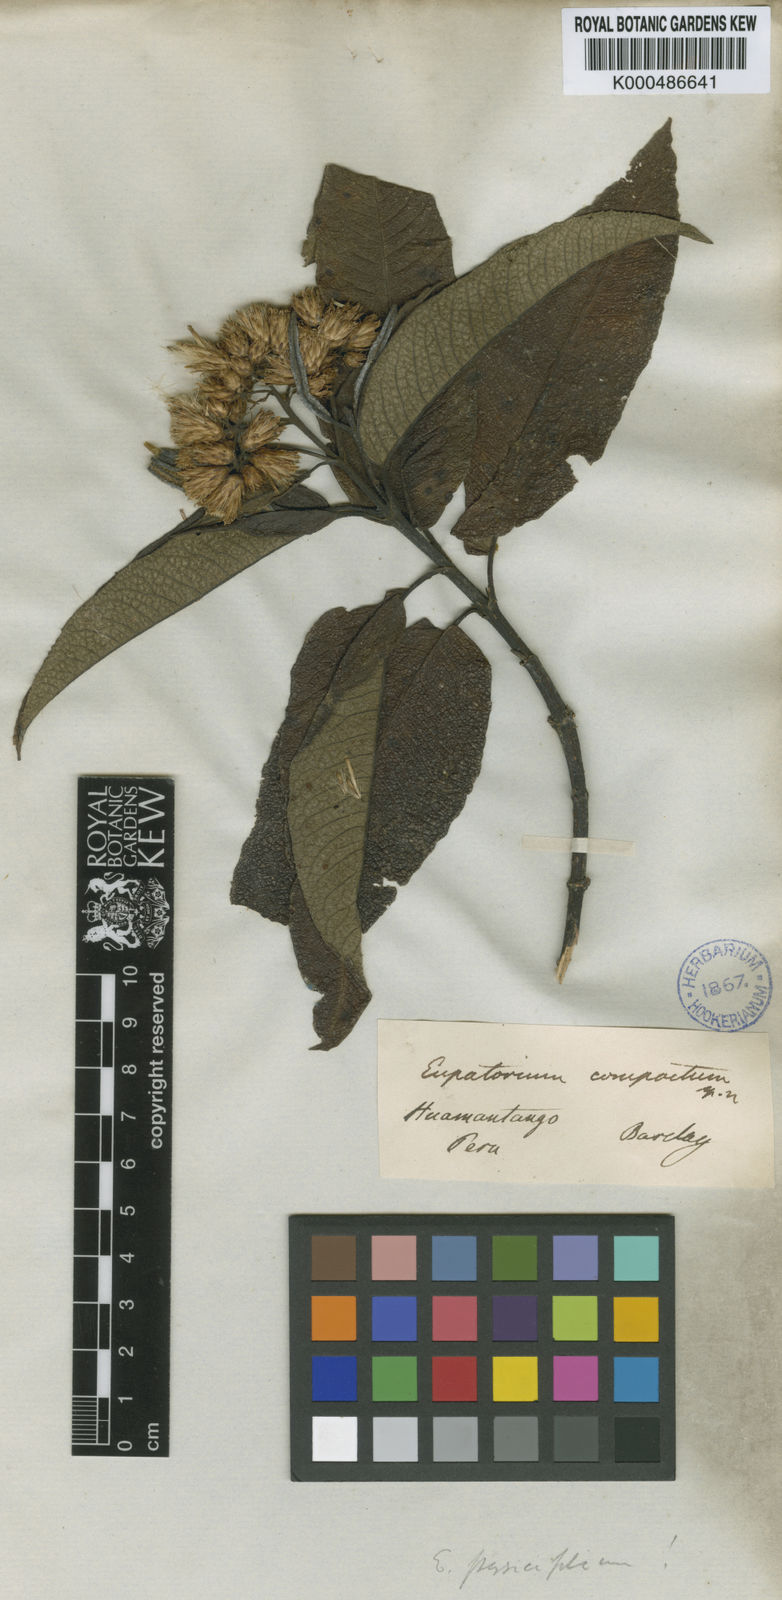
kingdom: Plantae
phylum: Tracheophyta
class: Magnoliopsida
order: Asterales
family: Asteraceae
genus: Aristeguietia
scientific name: Aristeguietia persicifolia
